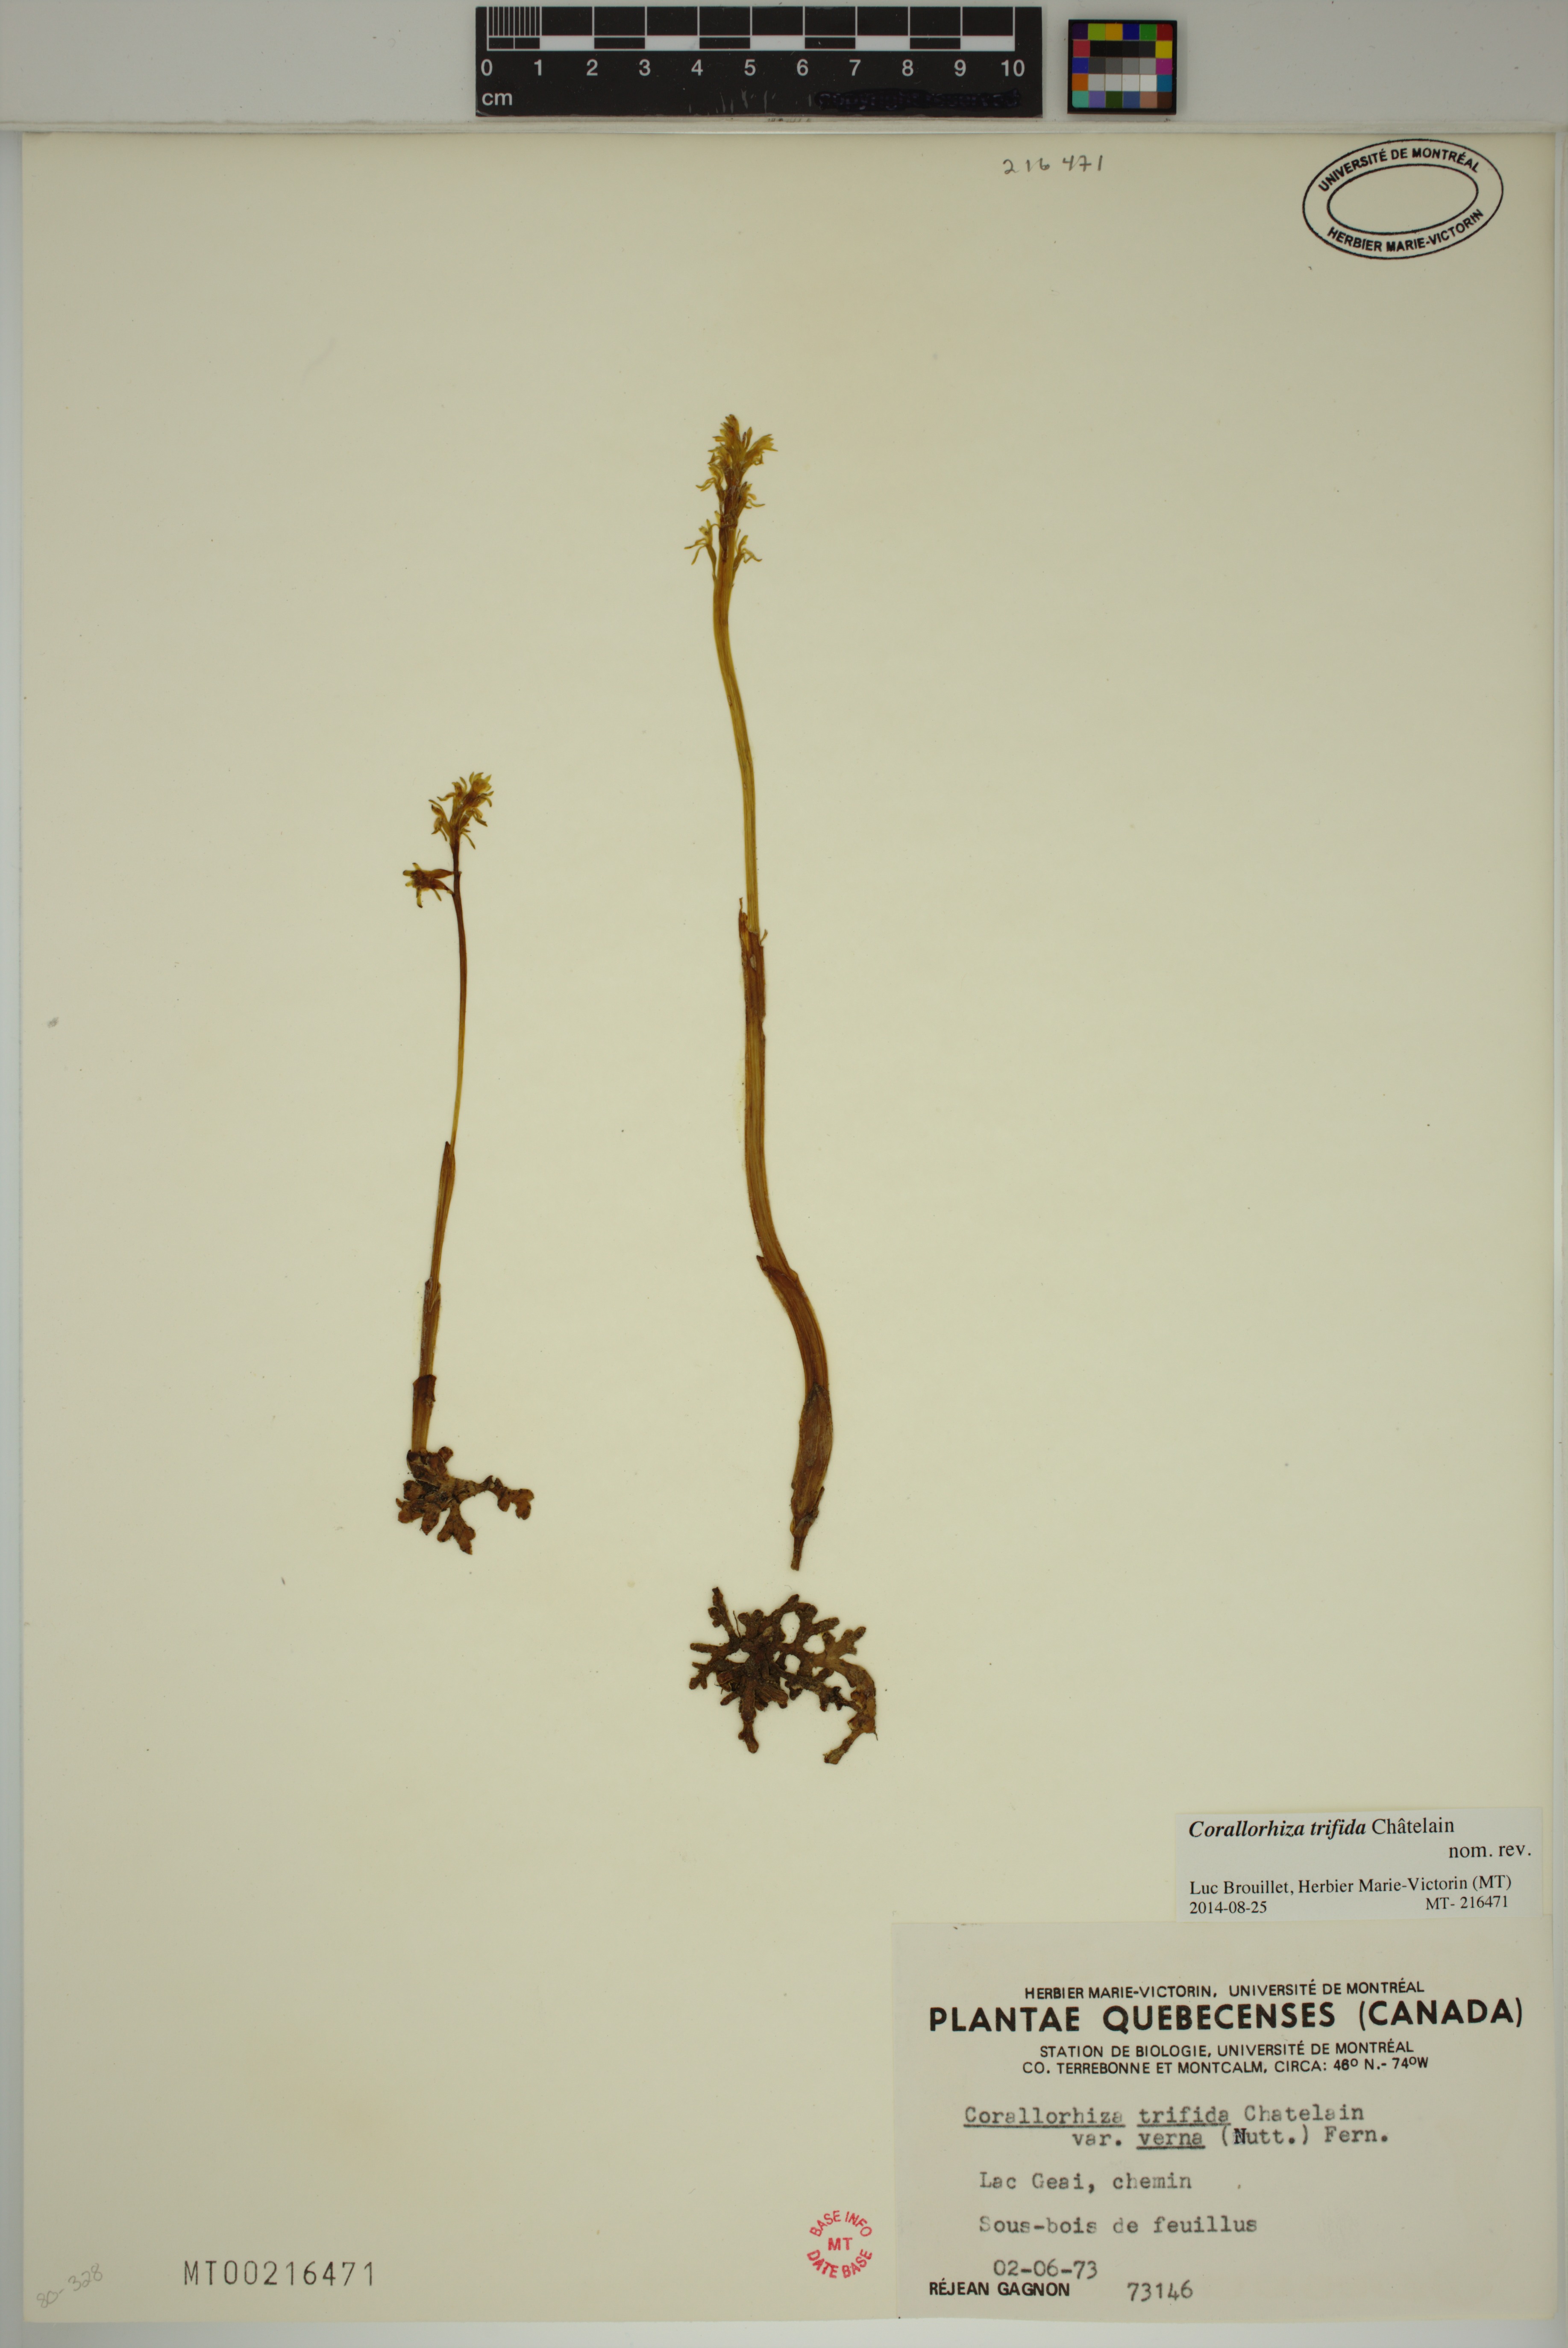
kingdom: Plantae
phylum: Tracheophyta
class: Liliopsida
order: Asparagales
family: Orchidaceae
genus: Corallorhiza
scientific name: Corallorhiza trifida
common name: Yellow coralroot
